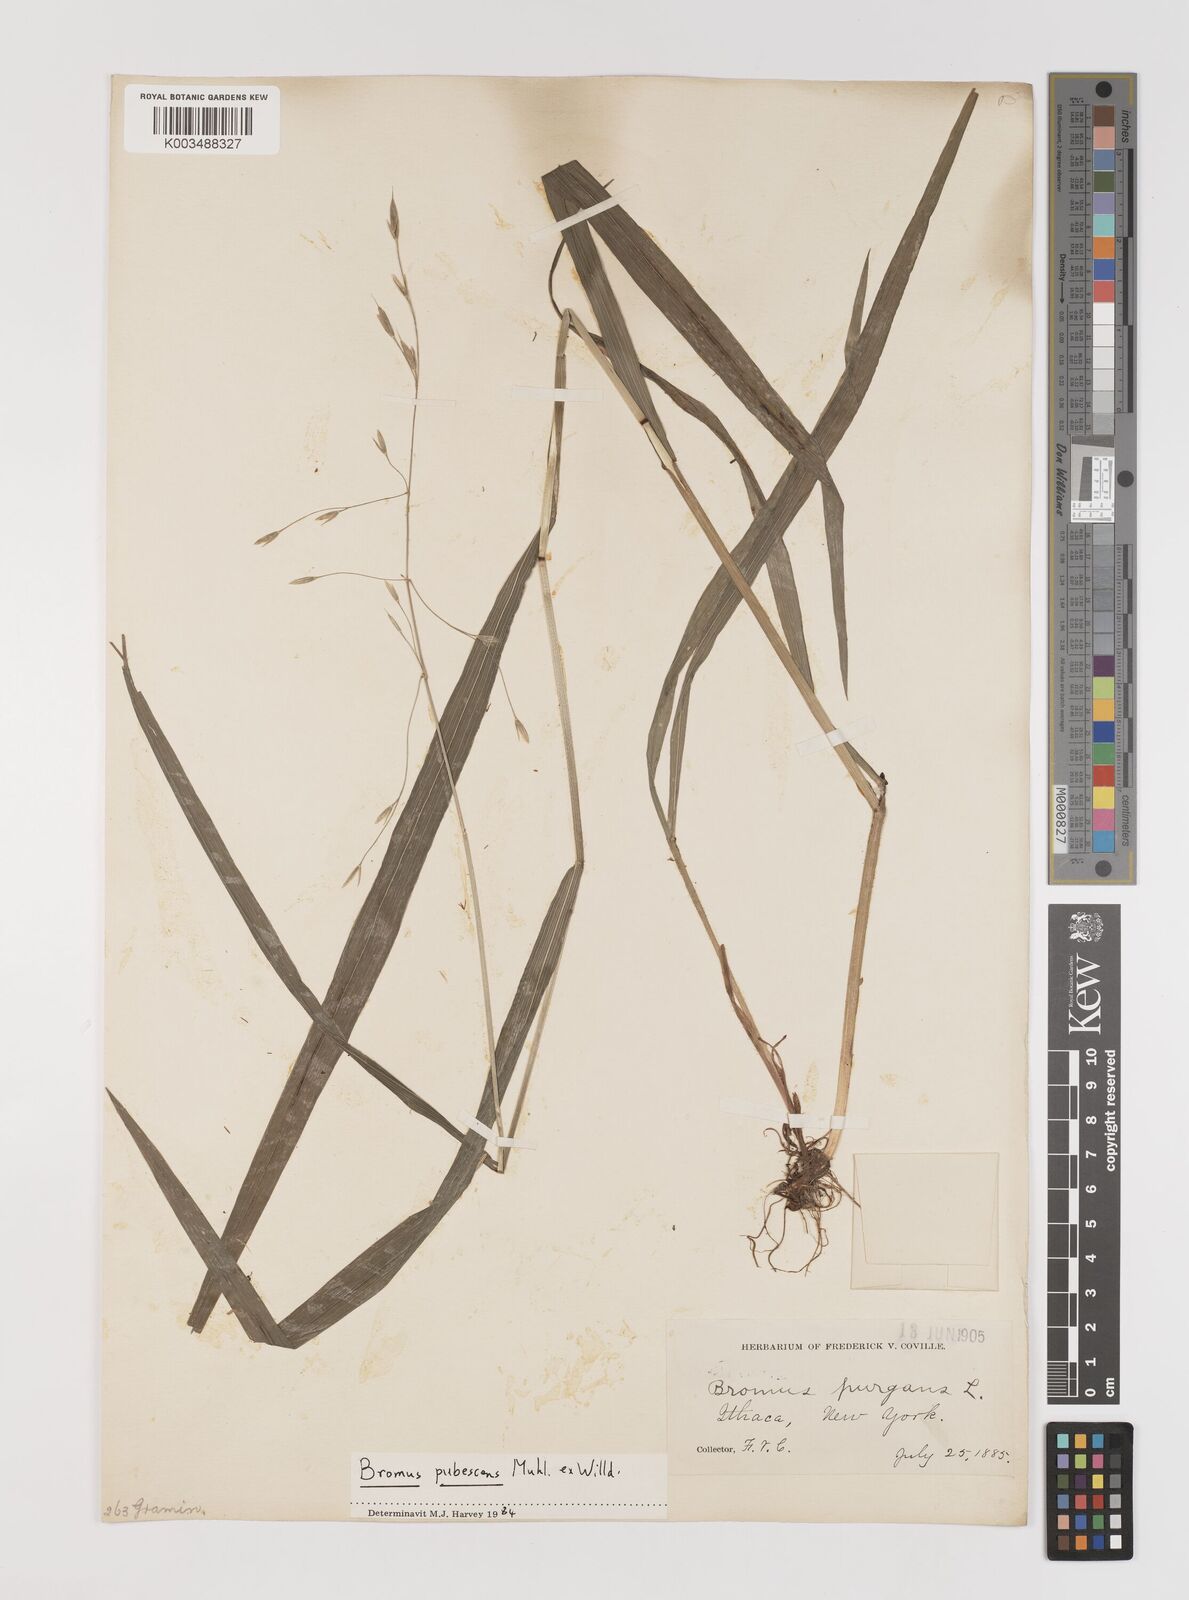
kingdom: Plantae
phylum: Tracheophyta
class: Liliopsida
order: Poales
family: Poaceae
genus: Bromus
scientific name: Bromus pubescens
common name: Hairy wood brome grass
